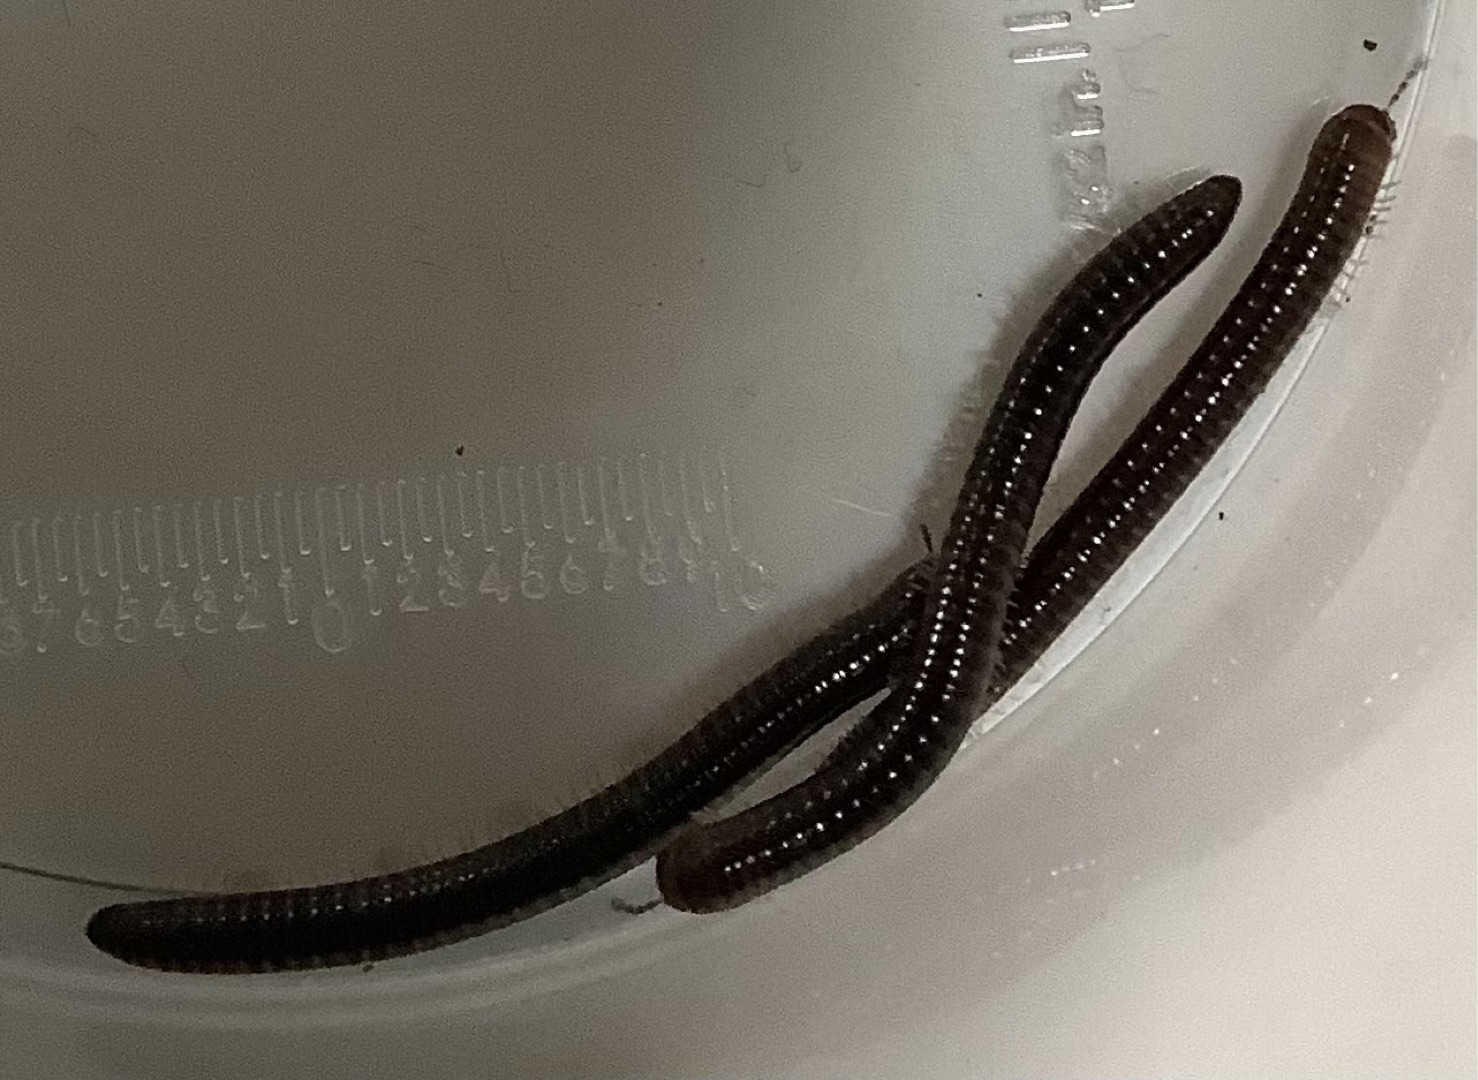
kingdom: Animalia
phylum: Arthropoda
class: Diplopoda
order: Julida
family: Julidae
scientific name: Julidae
